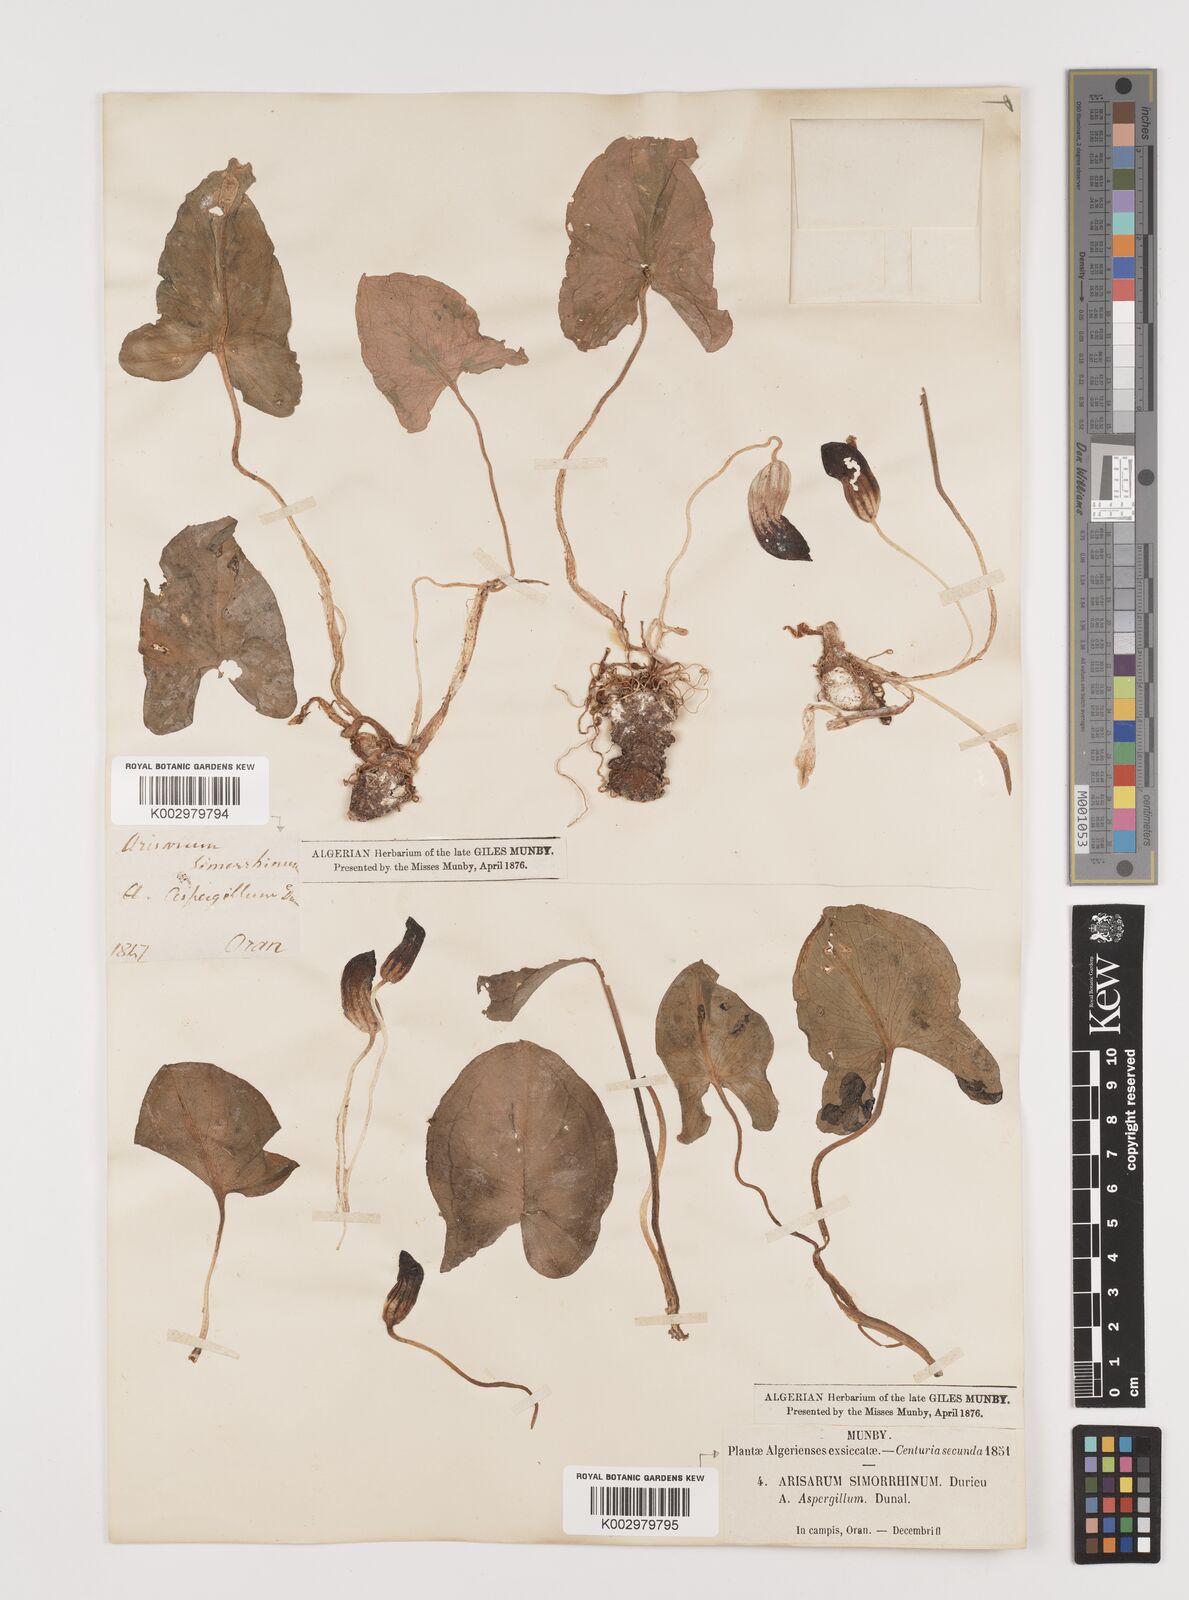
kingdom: Plantae
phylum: Tracheophyta
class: Liliopsida
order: Alismatales
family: Araceae
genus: Arisarum
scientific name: Arisarum simorrhinum
